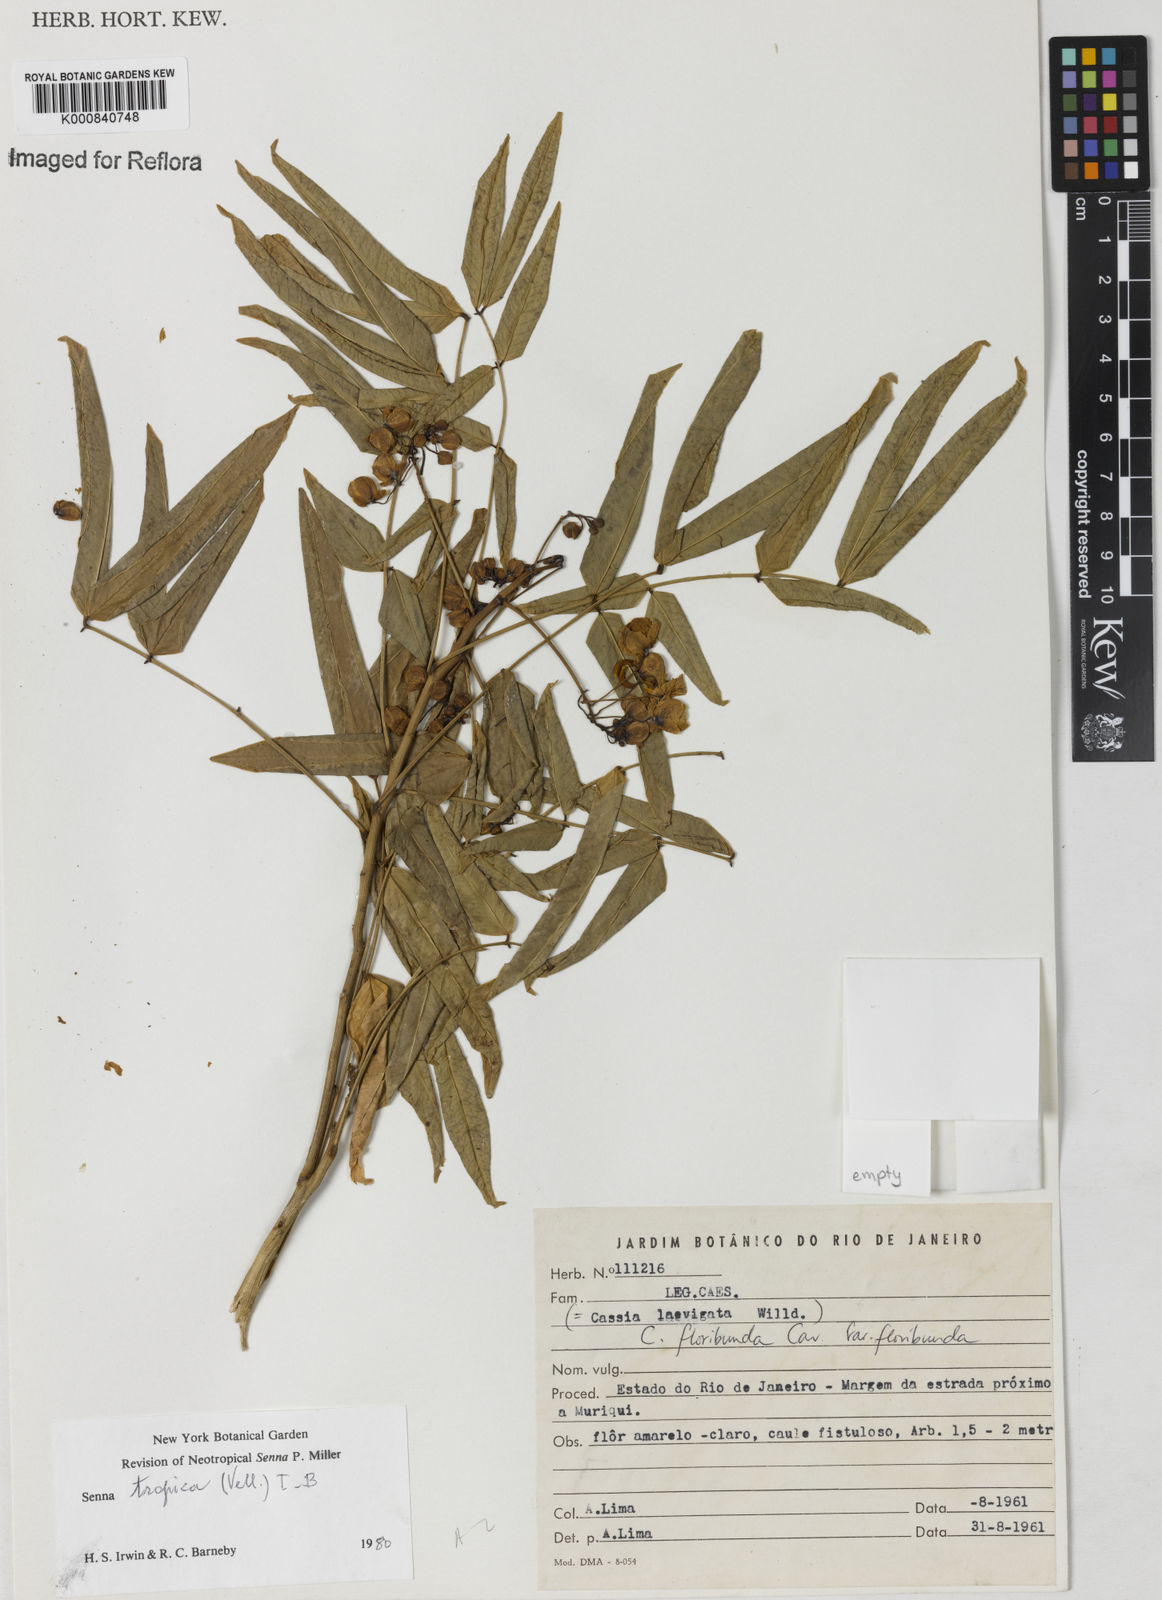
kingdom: Plantae
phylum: Tracheophyta
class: Magnoliopsida
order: Fabales
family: Fabaceae
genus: Senna
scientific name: Senna tropica
